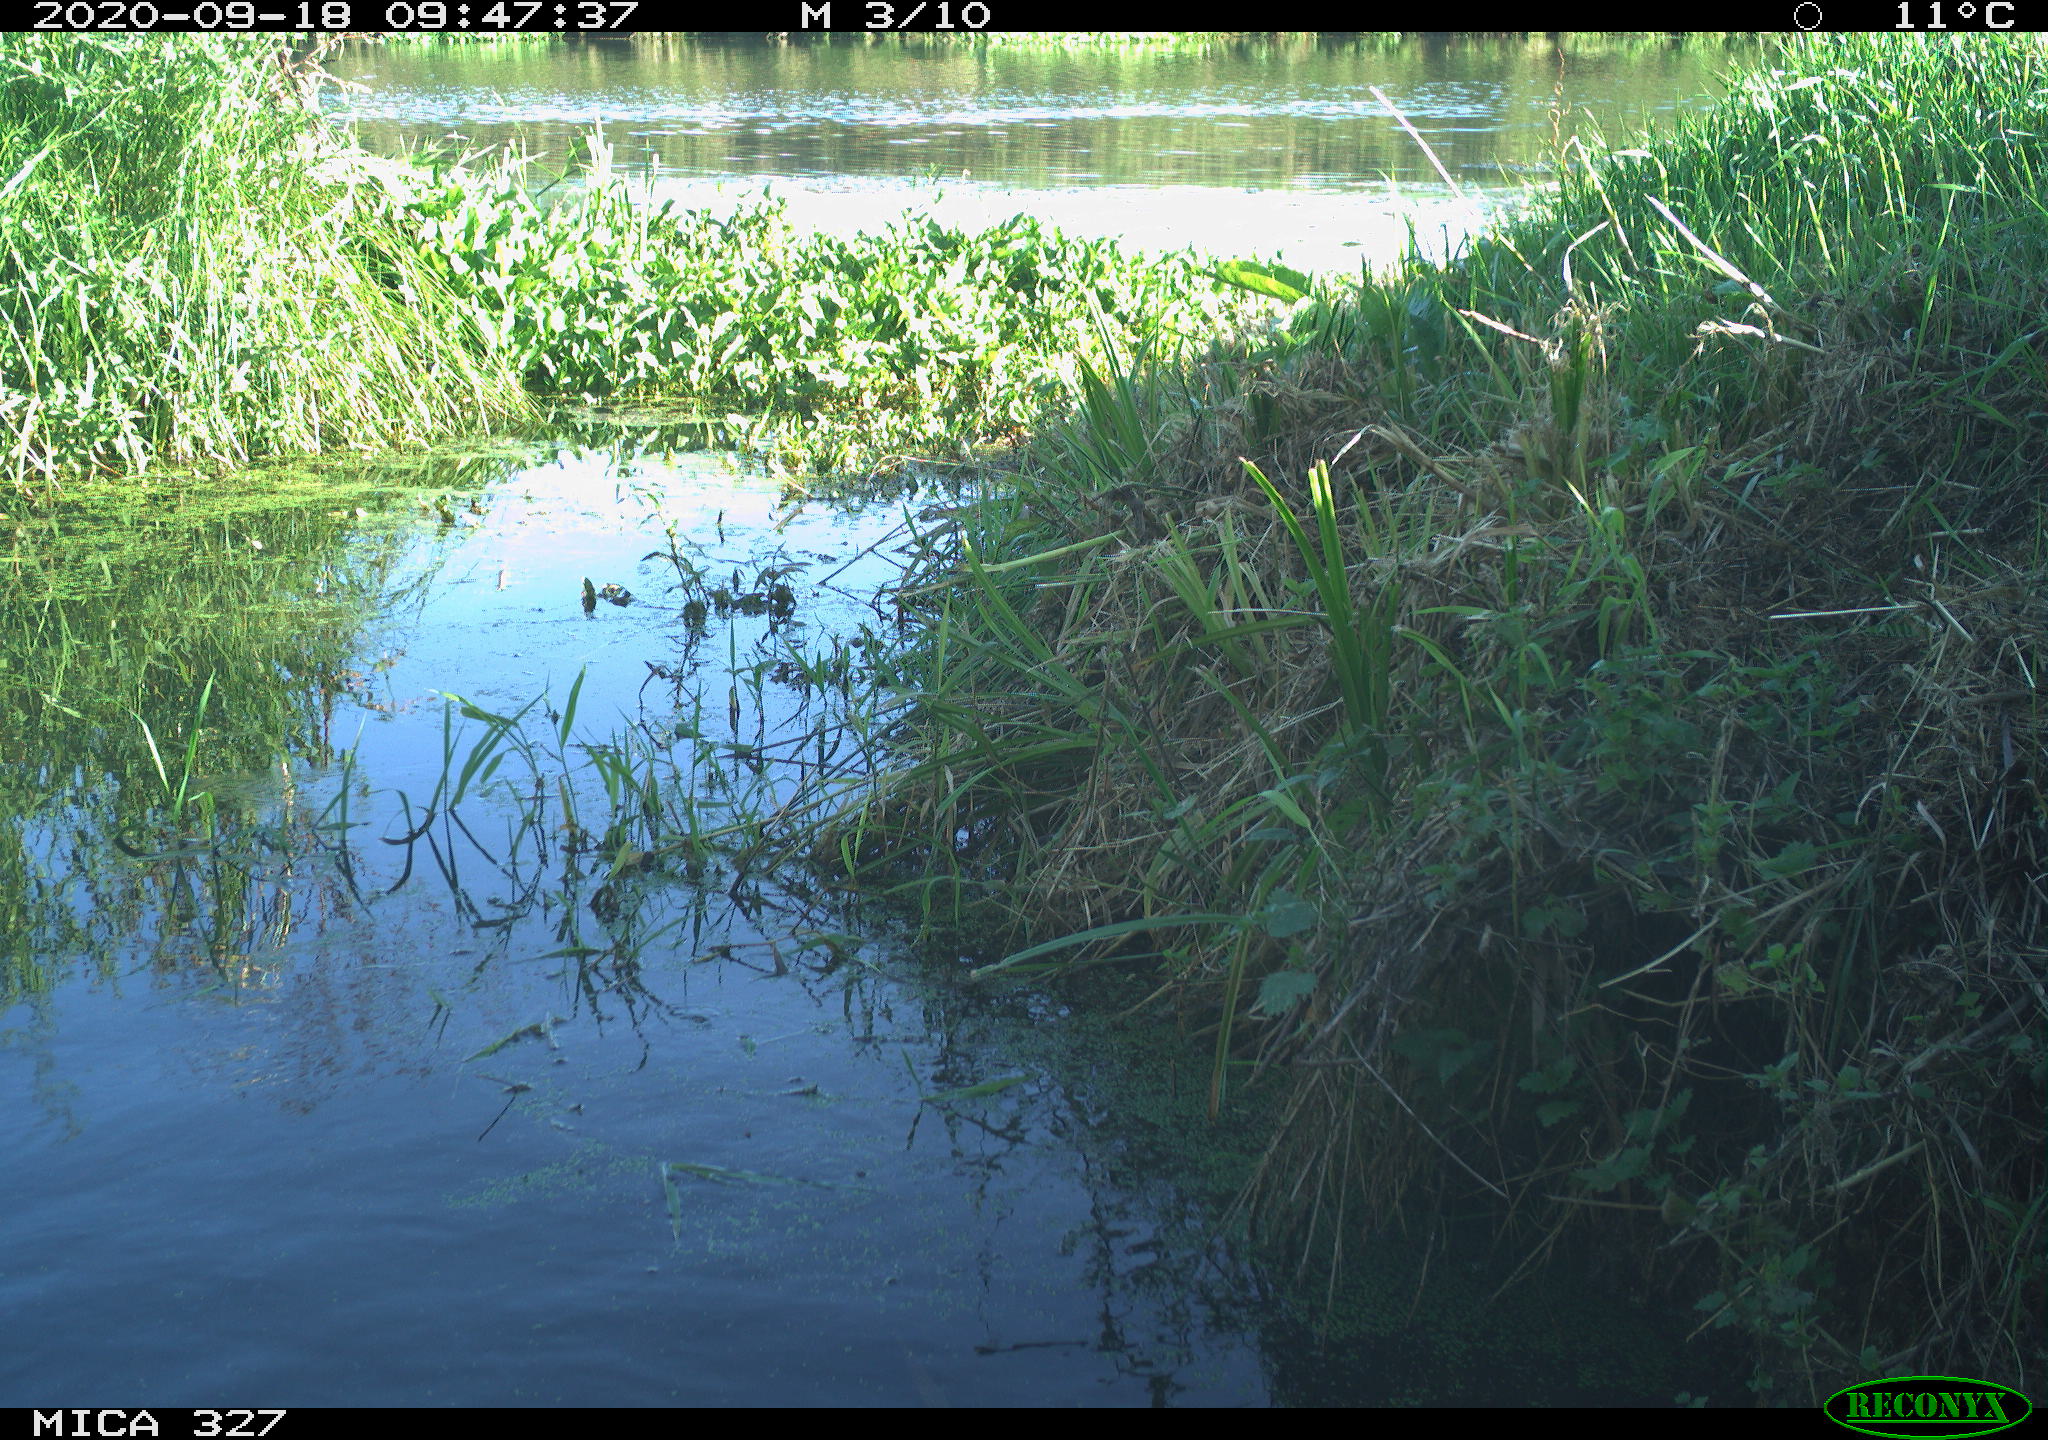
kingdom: Animalia
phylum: Chordata
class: Aves
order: Columbiformes
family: Columbidae
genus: Columba
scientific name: Columba palumbus
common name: Common wood pigeon
